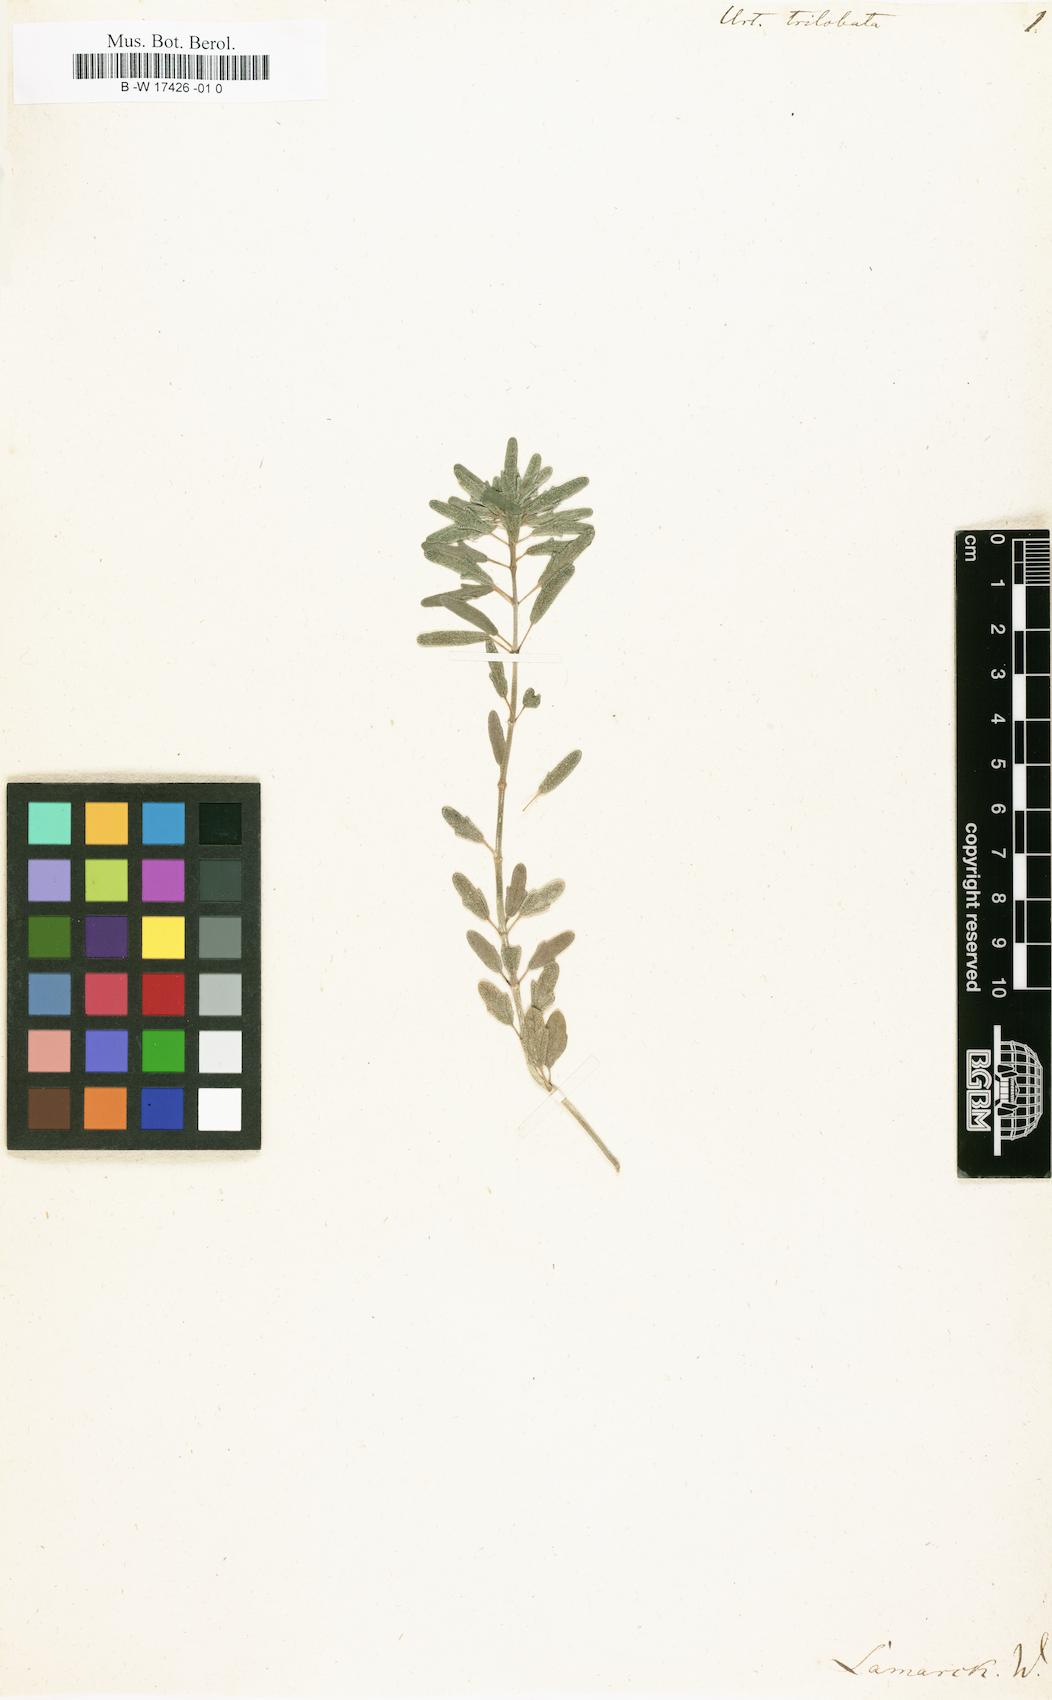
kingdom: Plantae
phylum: Tracheophyta
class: Magnoliopsida
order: Rosales
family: Urticaceae
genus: Pilea
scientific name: Pilea trilobata
